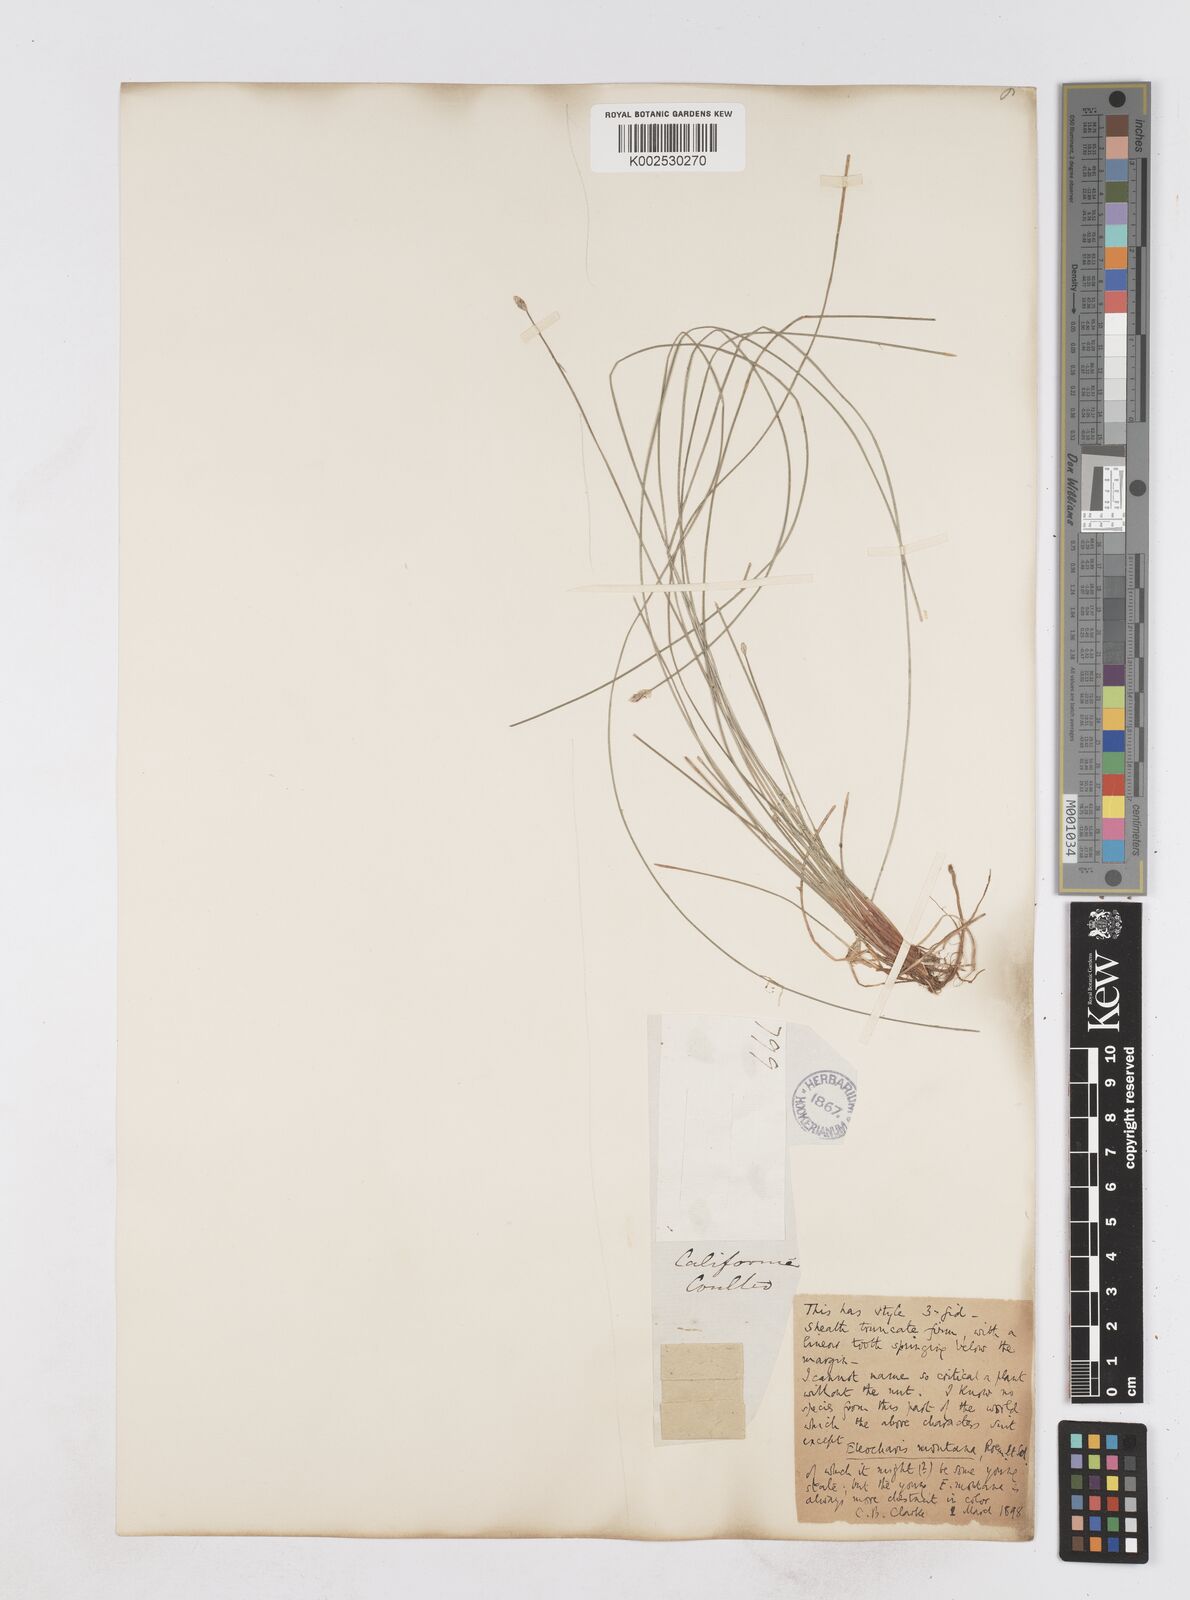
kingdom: Plantae
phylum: Tracheophyta
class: Liliopsida
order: Poales
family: Cyperaceae
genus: Eleocharis
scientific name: Eleocharis macounii
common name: Macoun's spikerush
